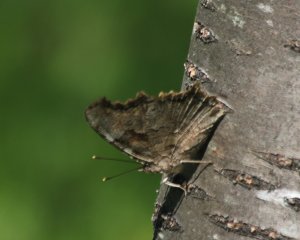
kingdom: Animalia
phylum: Arthropoda
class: Insecta
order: Lepidoptera
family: Nymphalidae
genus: Polygonia
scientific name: Polygonia vaualbum
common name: Compton Tortoiseshell
